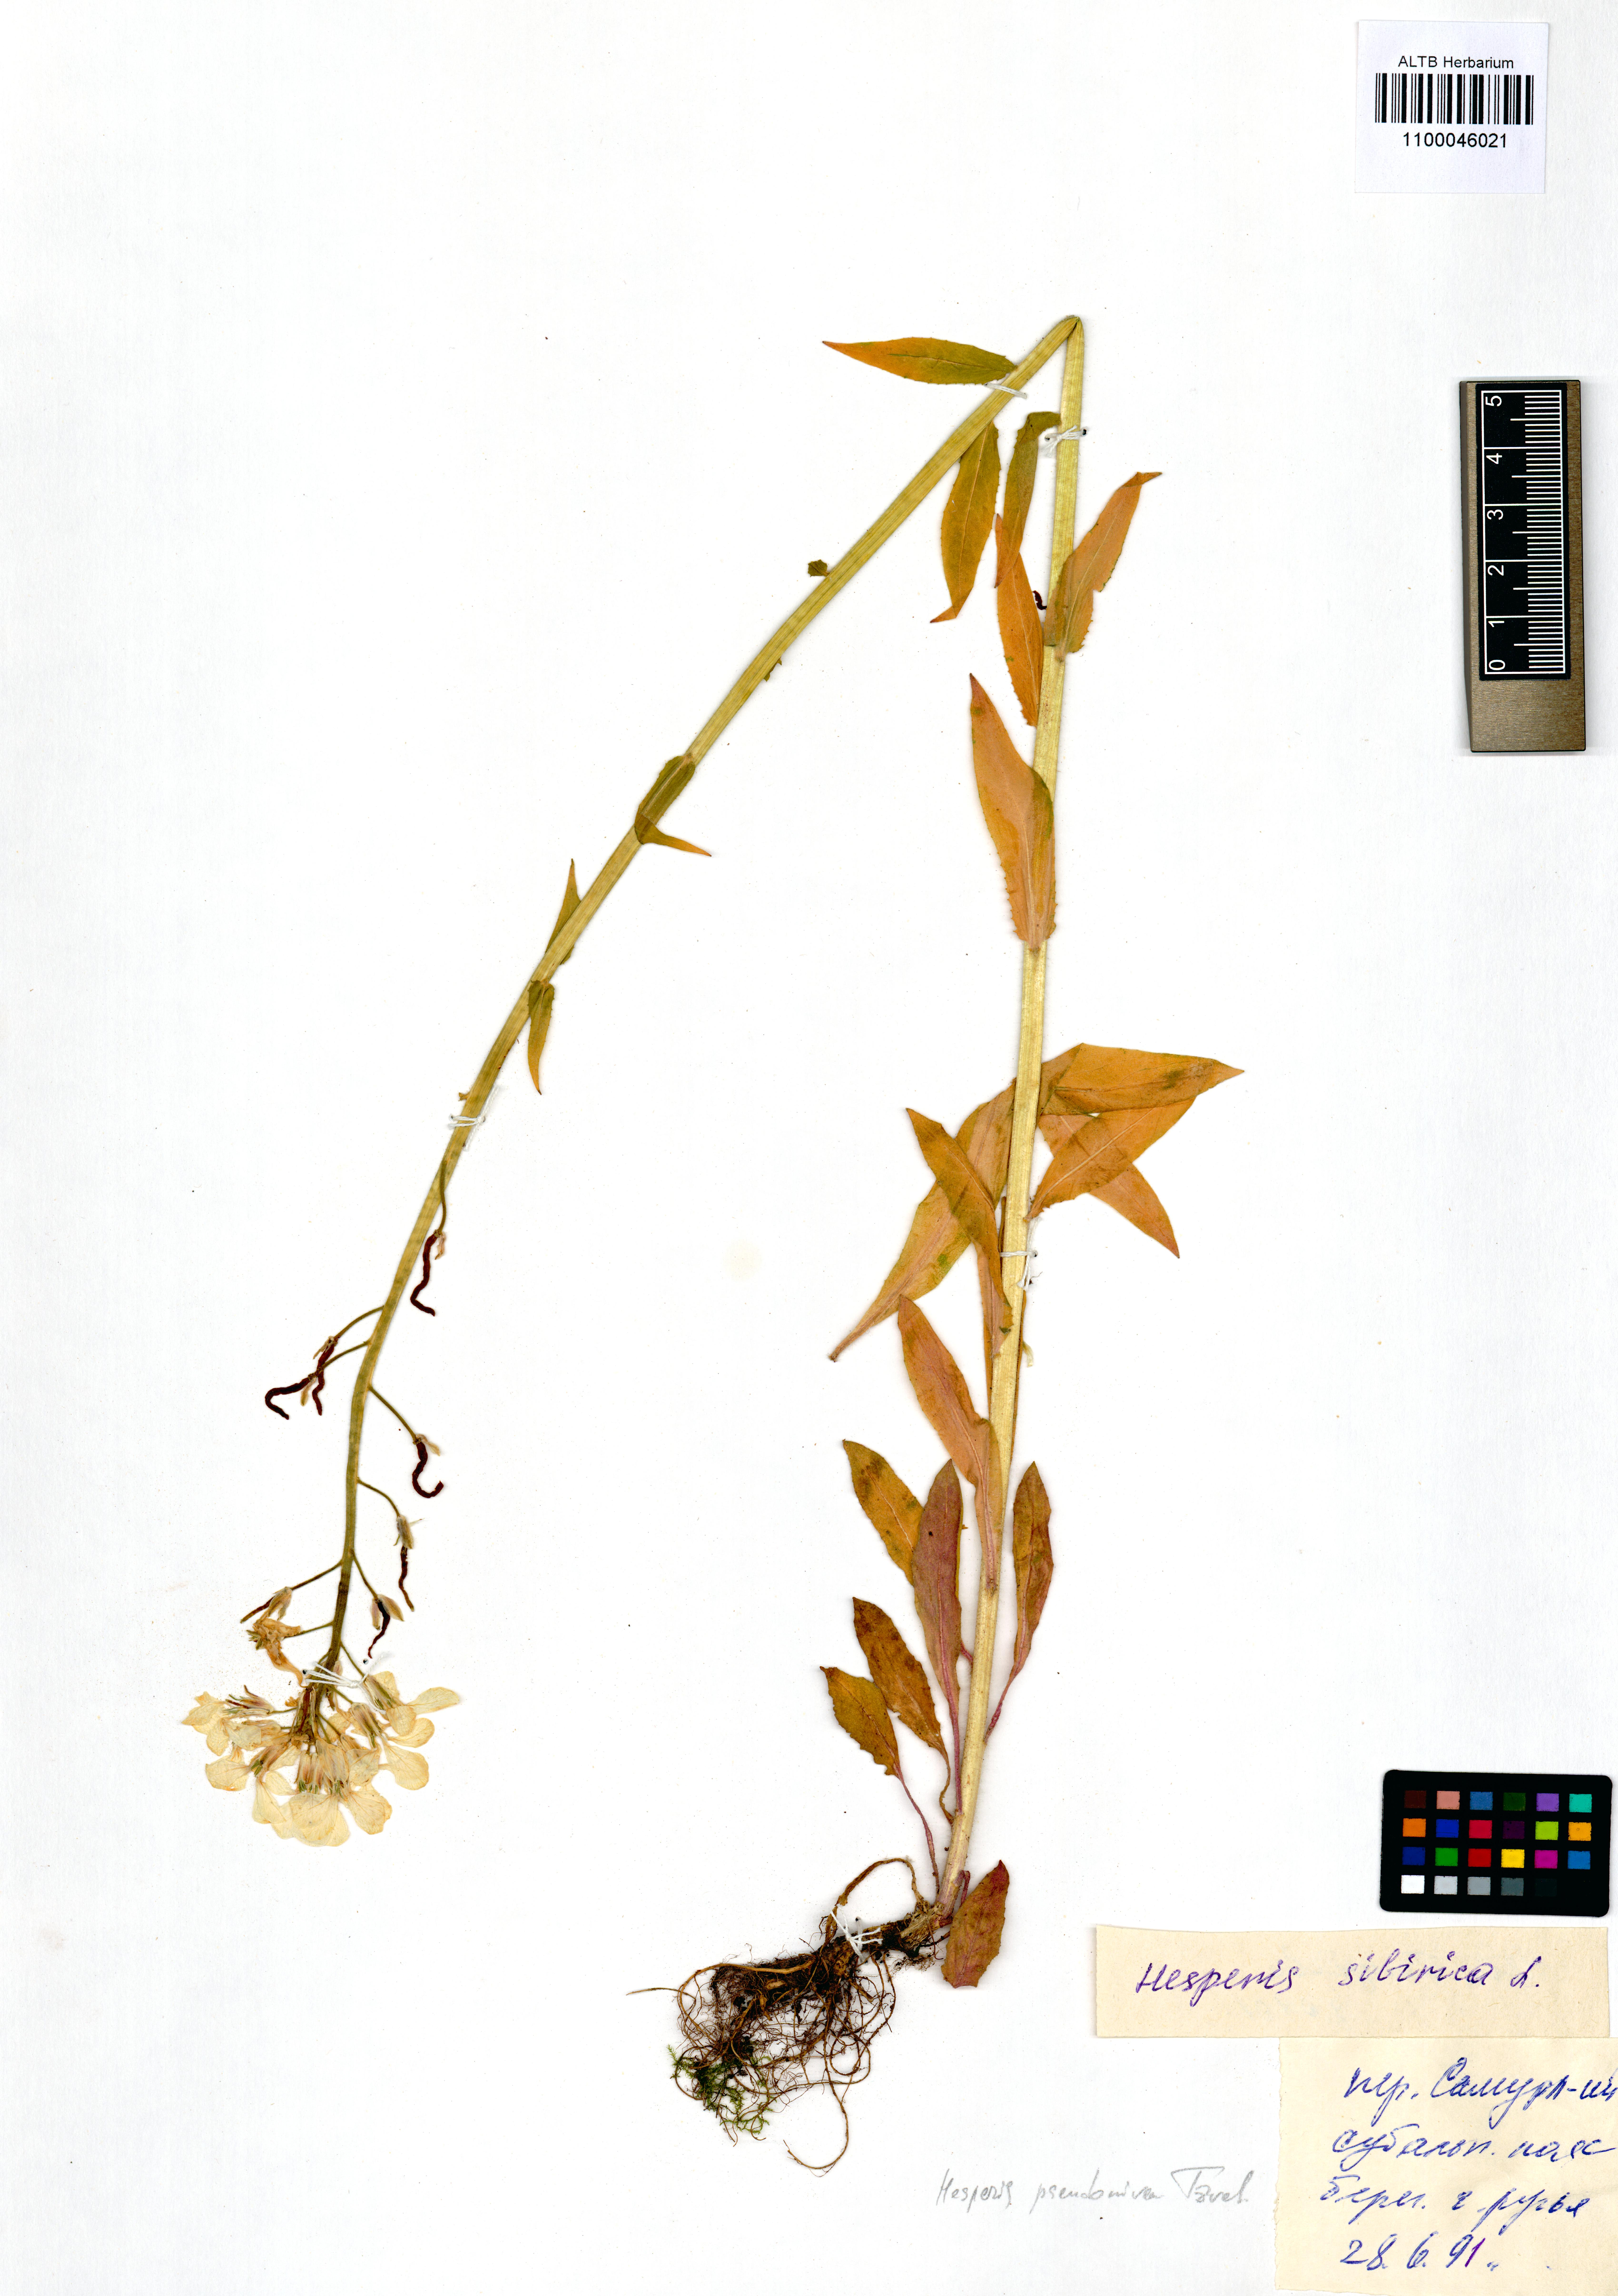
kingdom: Plantae
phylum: Tracheophyta
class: Magnoliopsida
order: Brassicales
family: Brassicaceae
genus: Hesperis
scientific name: Hesperis sibirica
